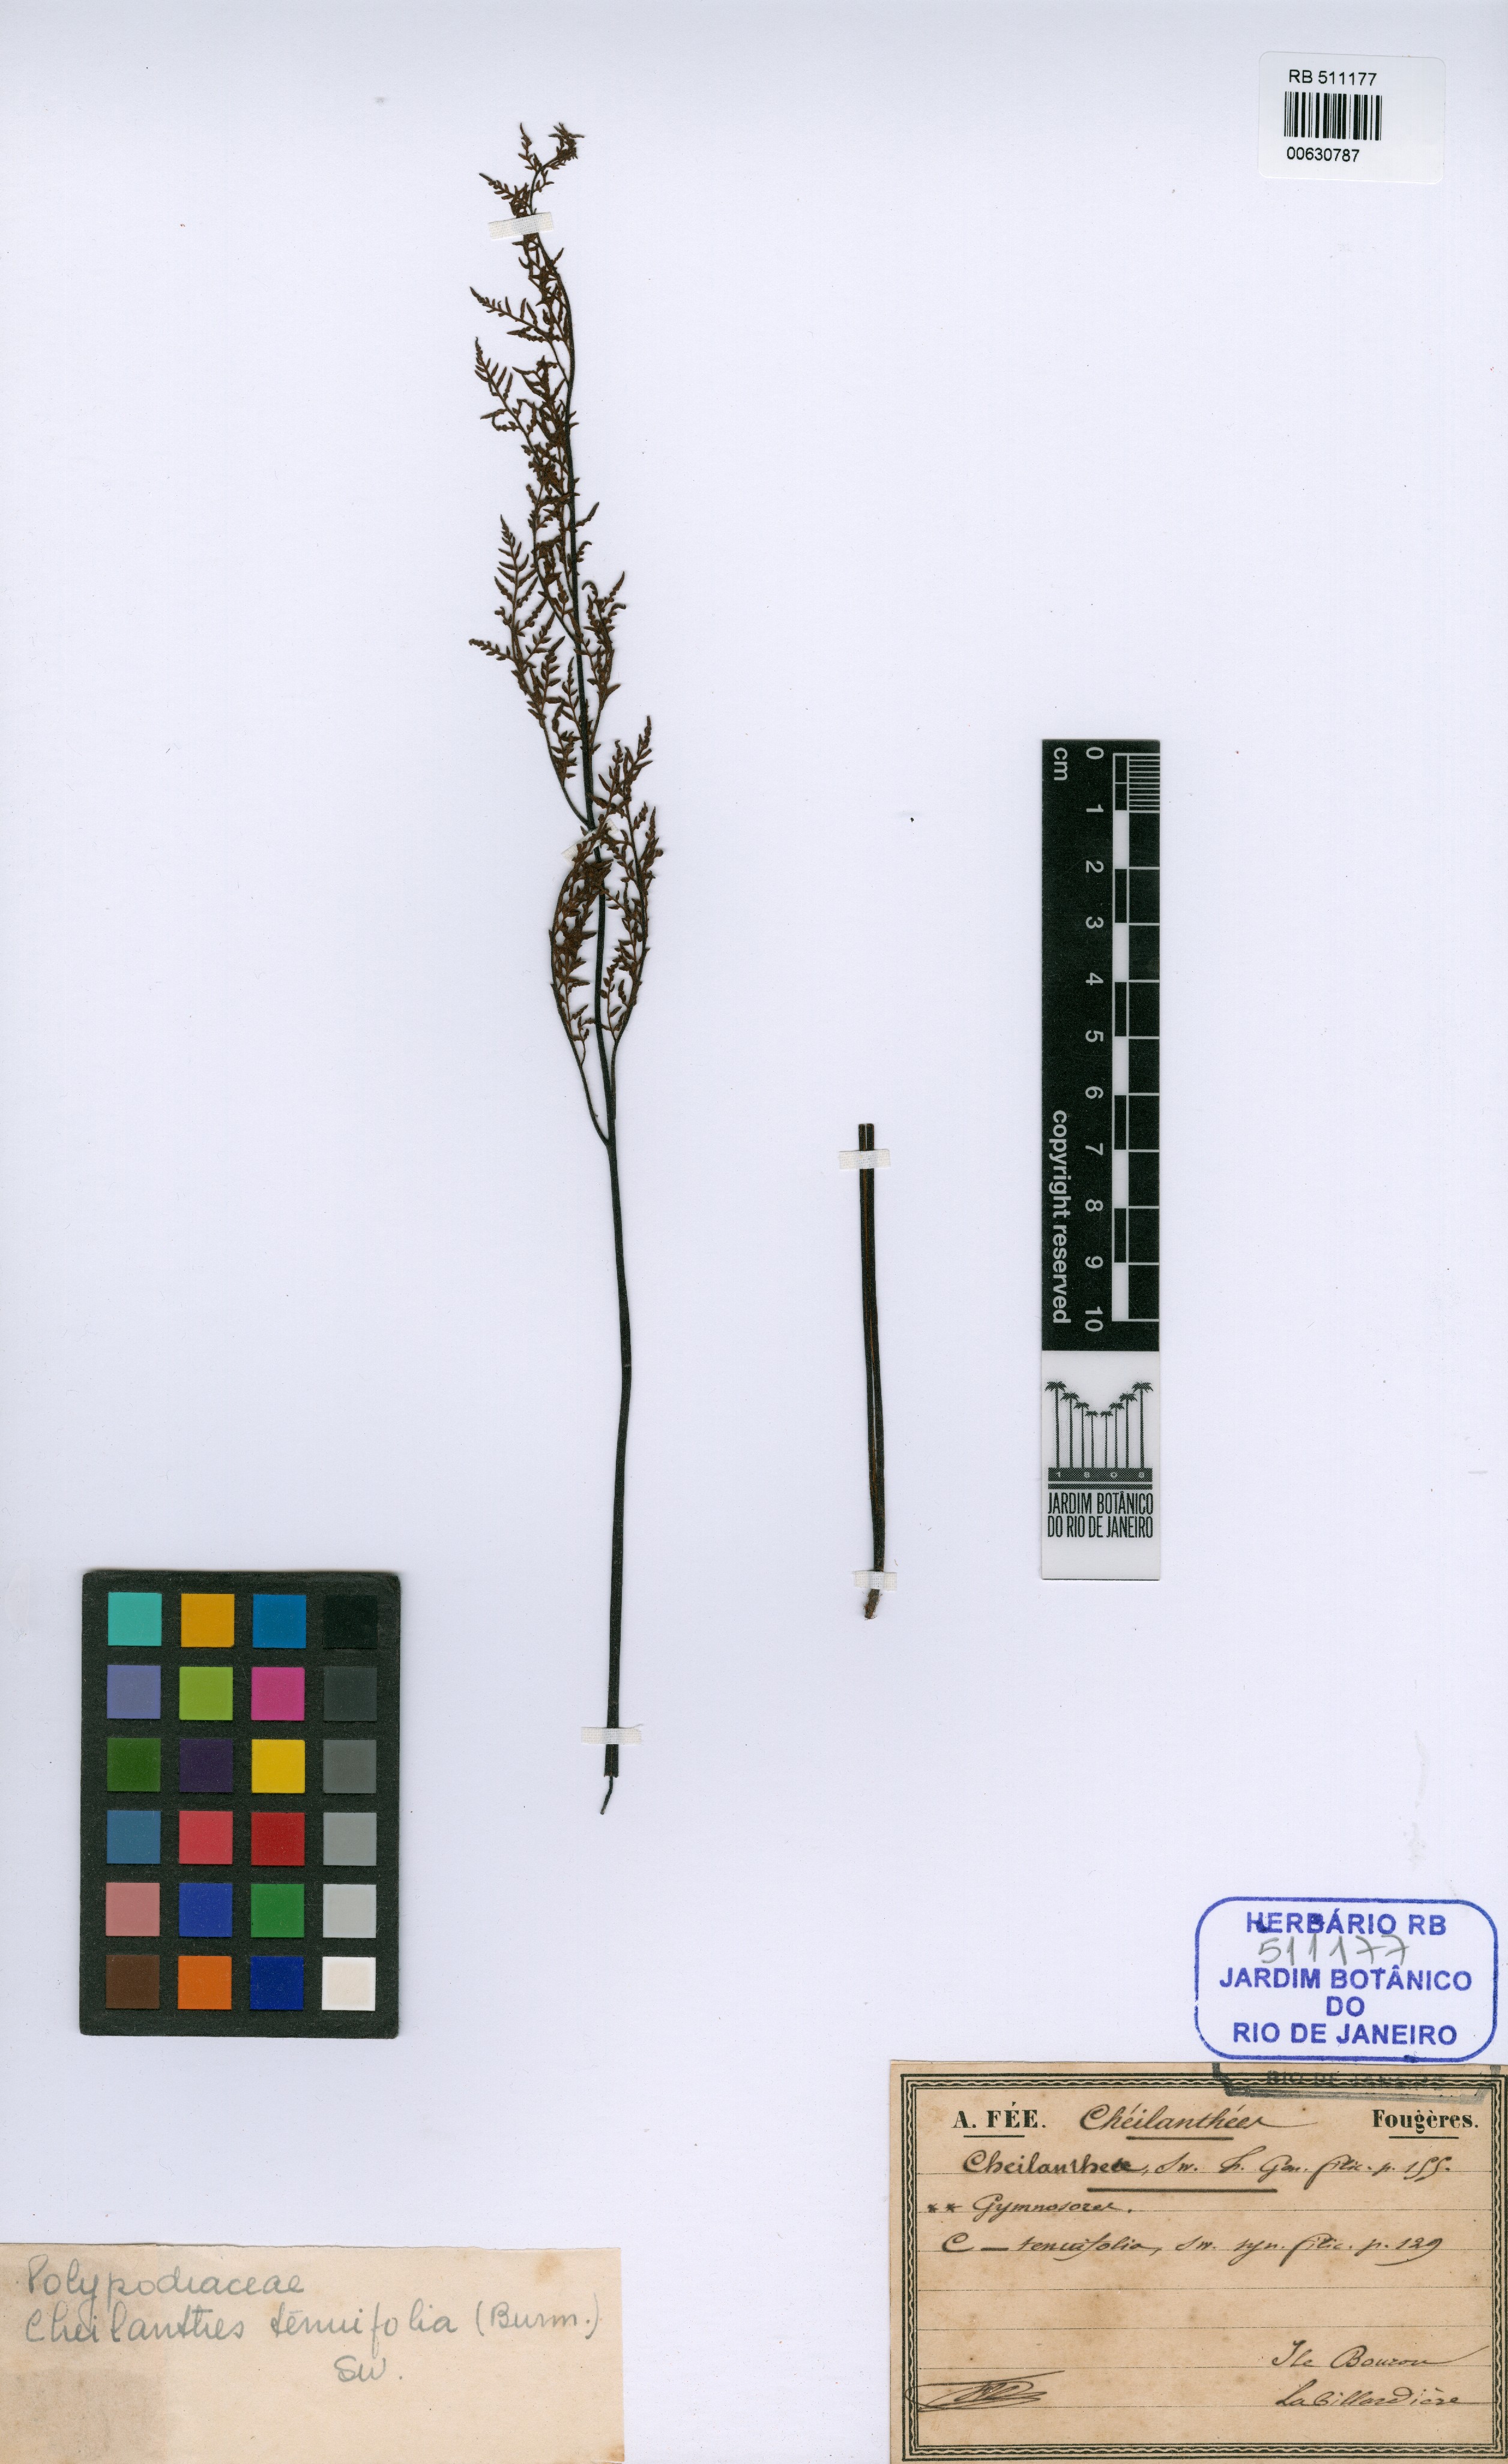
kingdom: Plantae
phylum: Tracheophyta
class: Polypodiopsida
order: Polypodiales
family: Pteridaceae
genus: Cheilanthes
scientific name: Cheilanthes tenuifolia
